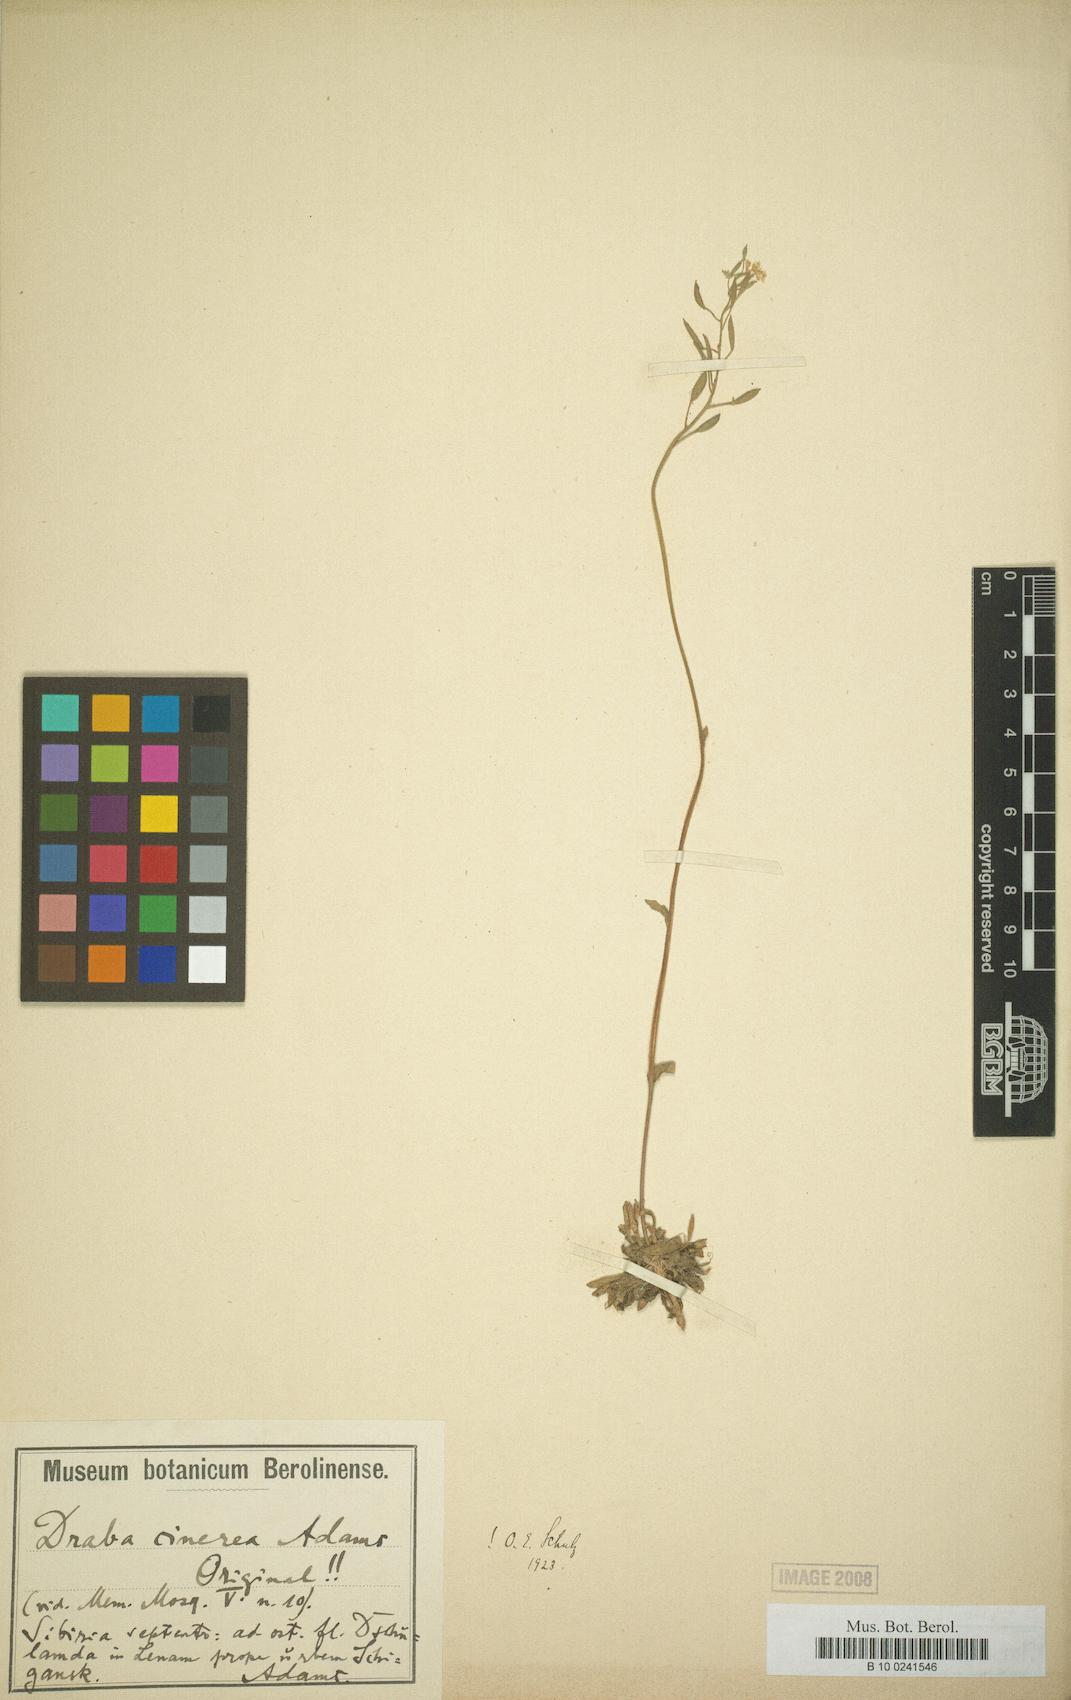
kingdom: Plantae
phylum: Tracheophyta
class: Magnoliopsida
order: Brassicales
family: Brassicaceae
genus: Draba
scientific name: Draba cinerea
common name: Ash-coloured whitlow-grass
